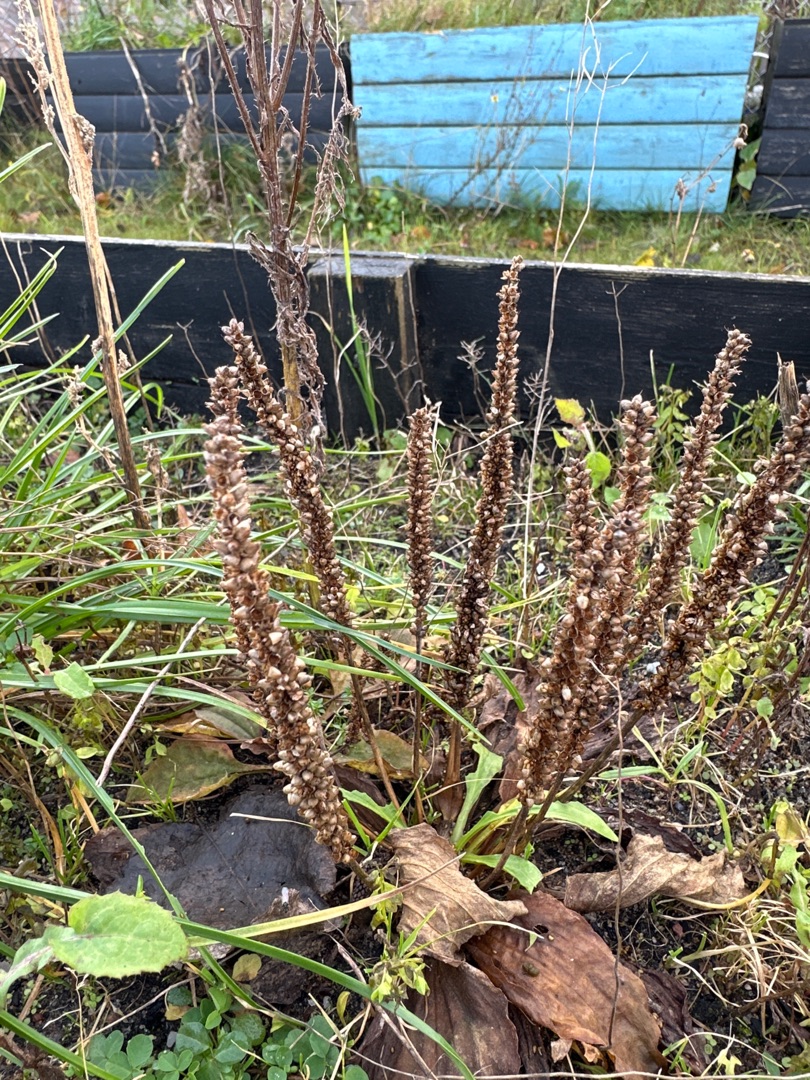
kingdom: Plantae
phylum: Tracheophyta
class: Magnoliopsida
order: Lamiales
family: Plantaginaceae
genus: Plantago
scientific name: Plantago major
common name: Glat vejbred
